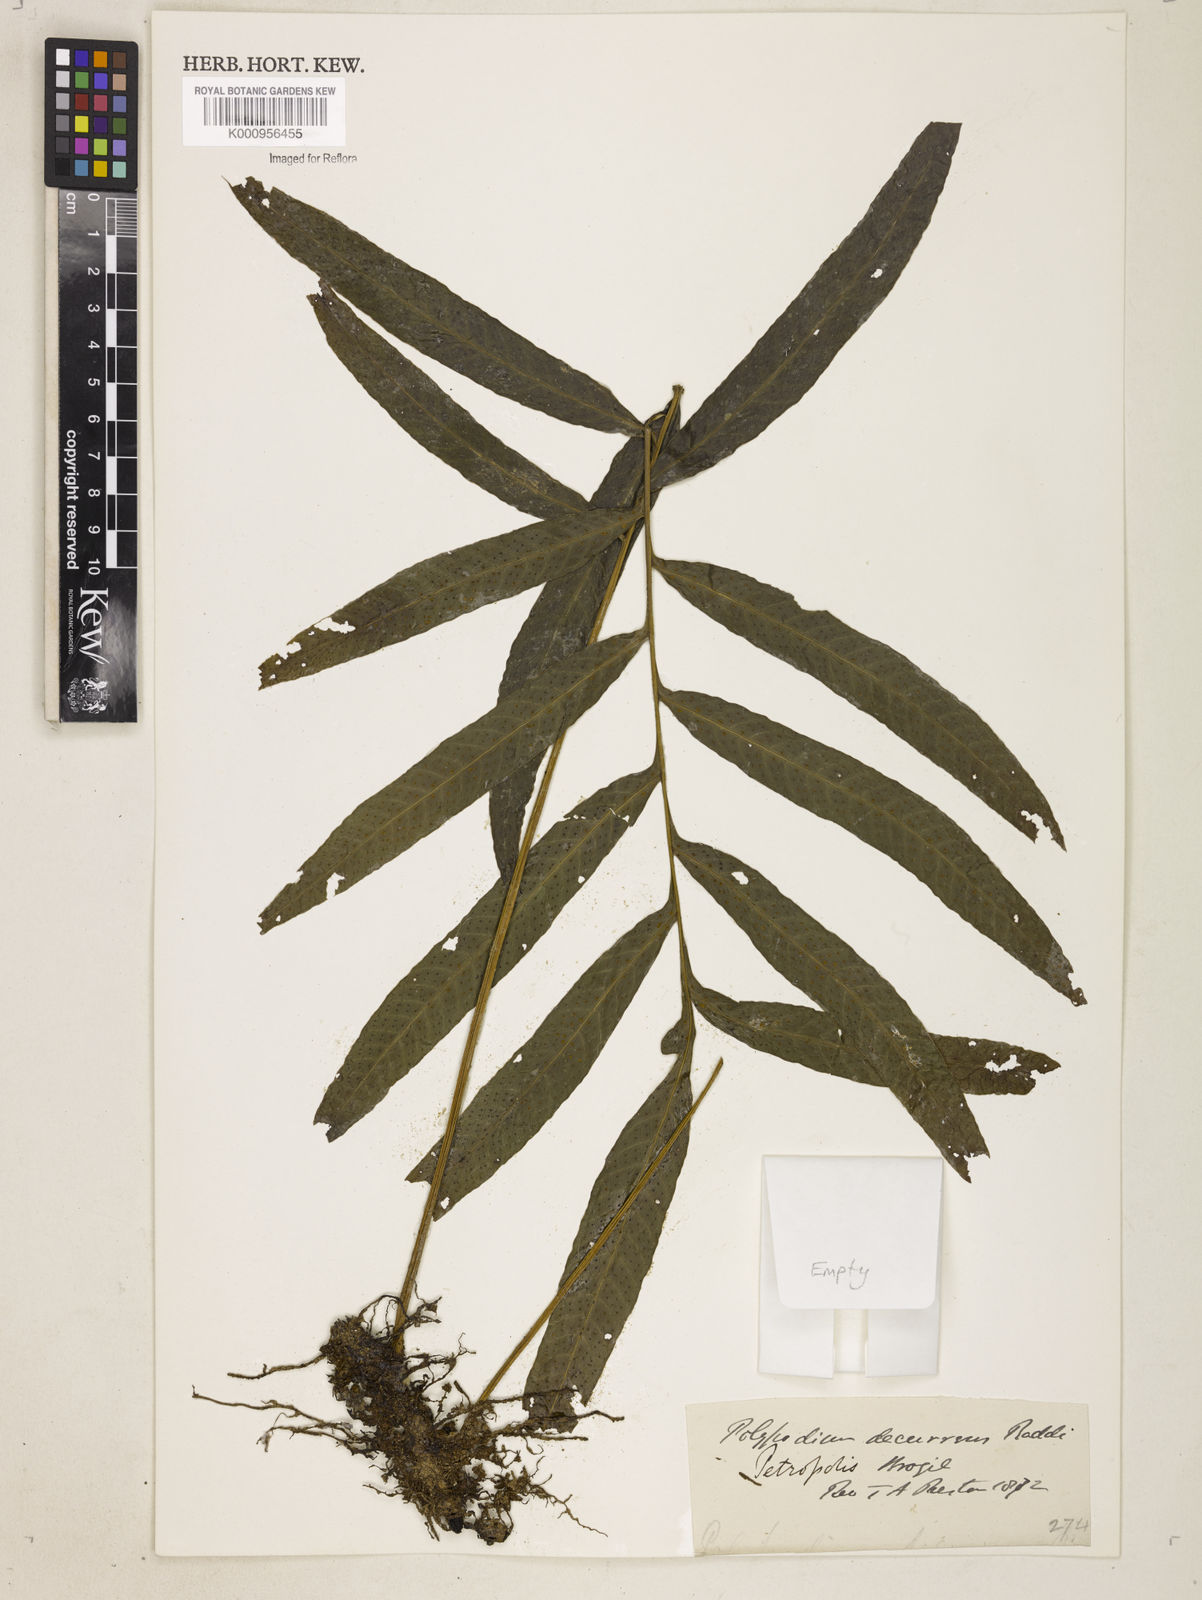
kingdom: Plantae
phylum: Tracheophyta
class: Polypodiopsida
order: Polypodiales
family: Polypodiaceae
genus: Polypodium
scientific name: Polypodium
